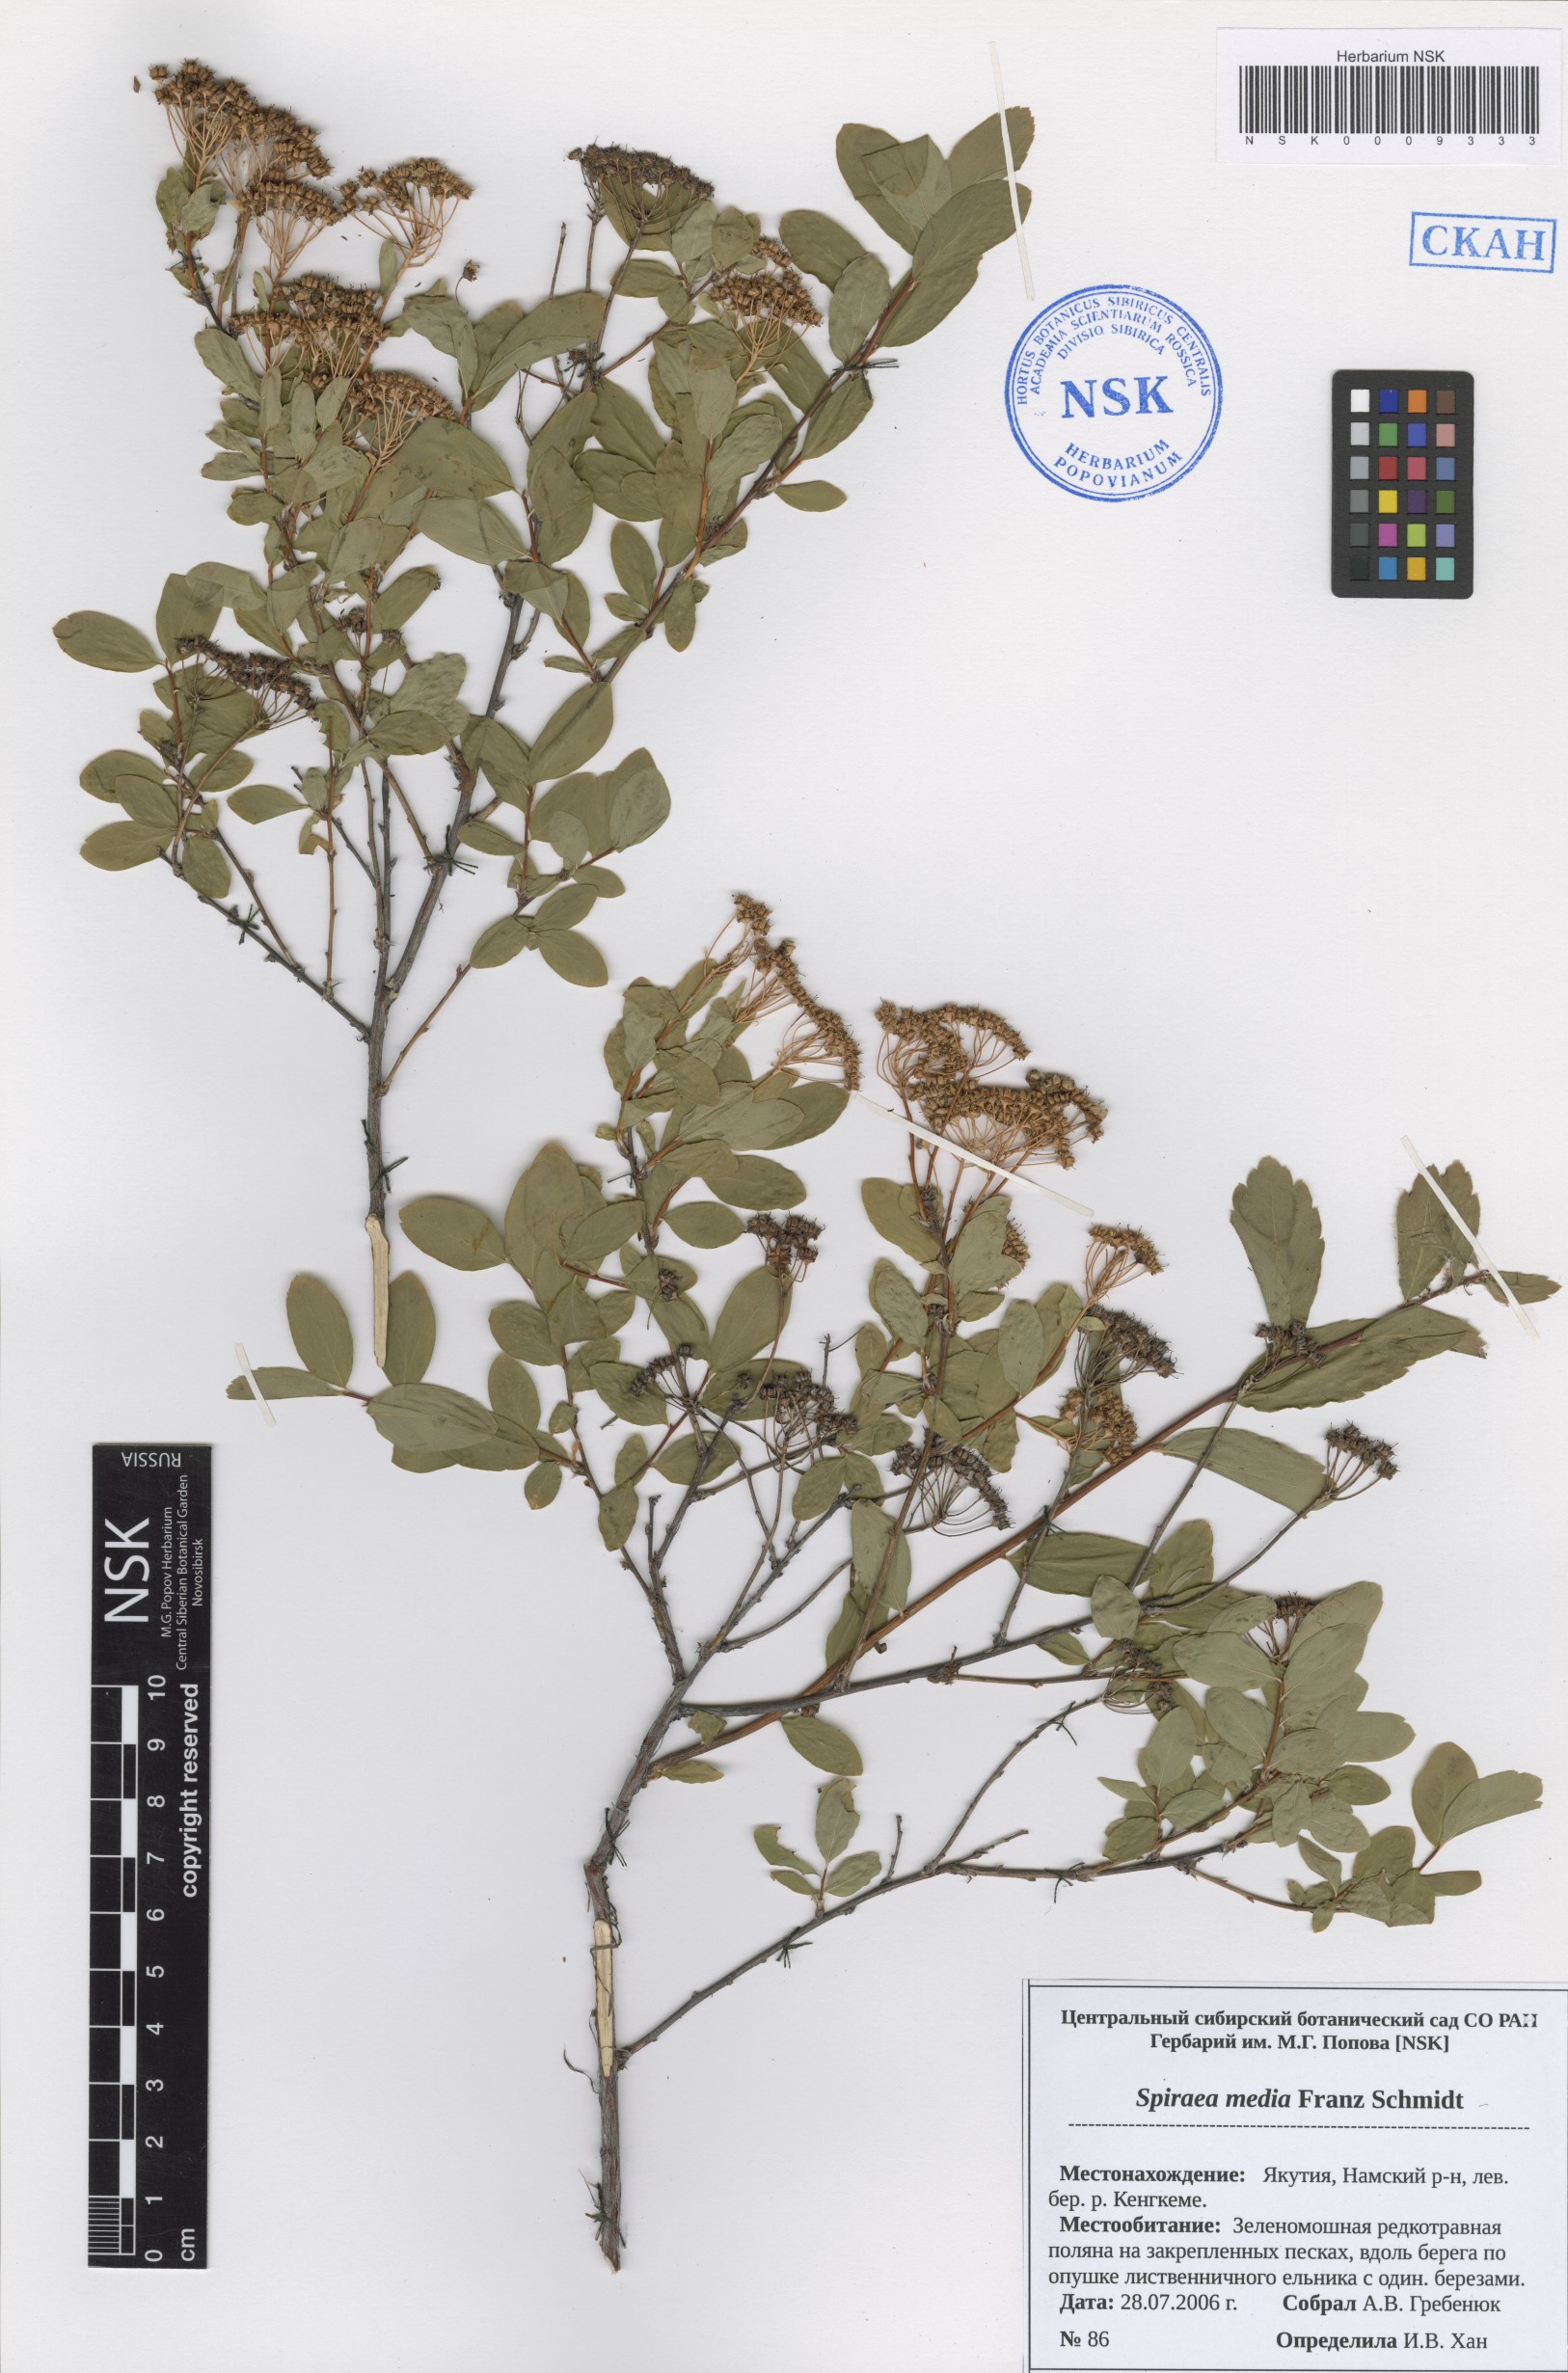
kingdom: Plantae
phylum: Tracheophyta
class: Magnoliopsida
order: Rosales
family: Rosaceae
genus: Spiraea
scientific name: Spiraea media
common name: Russian spiraea
